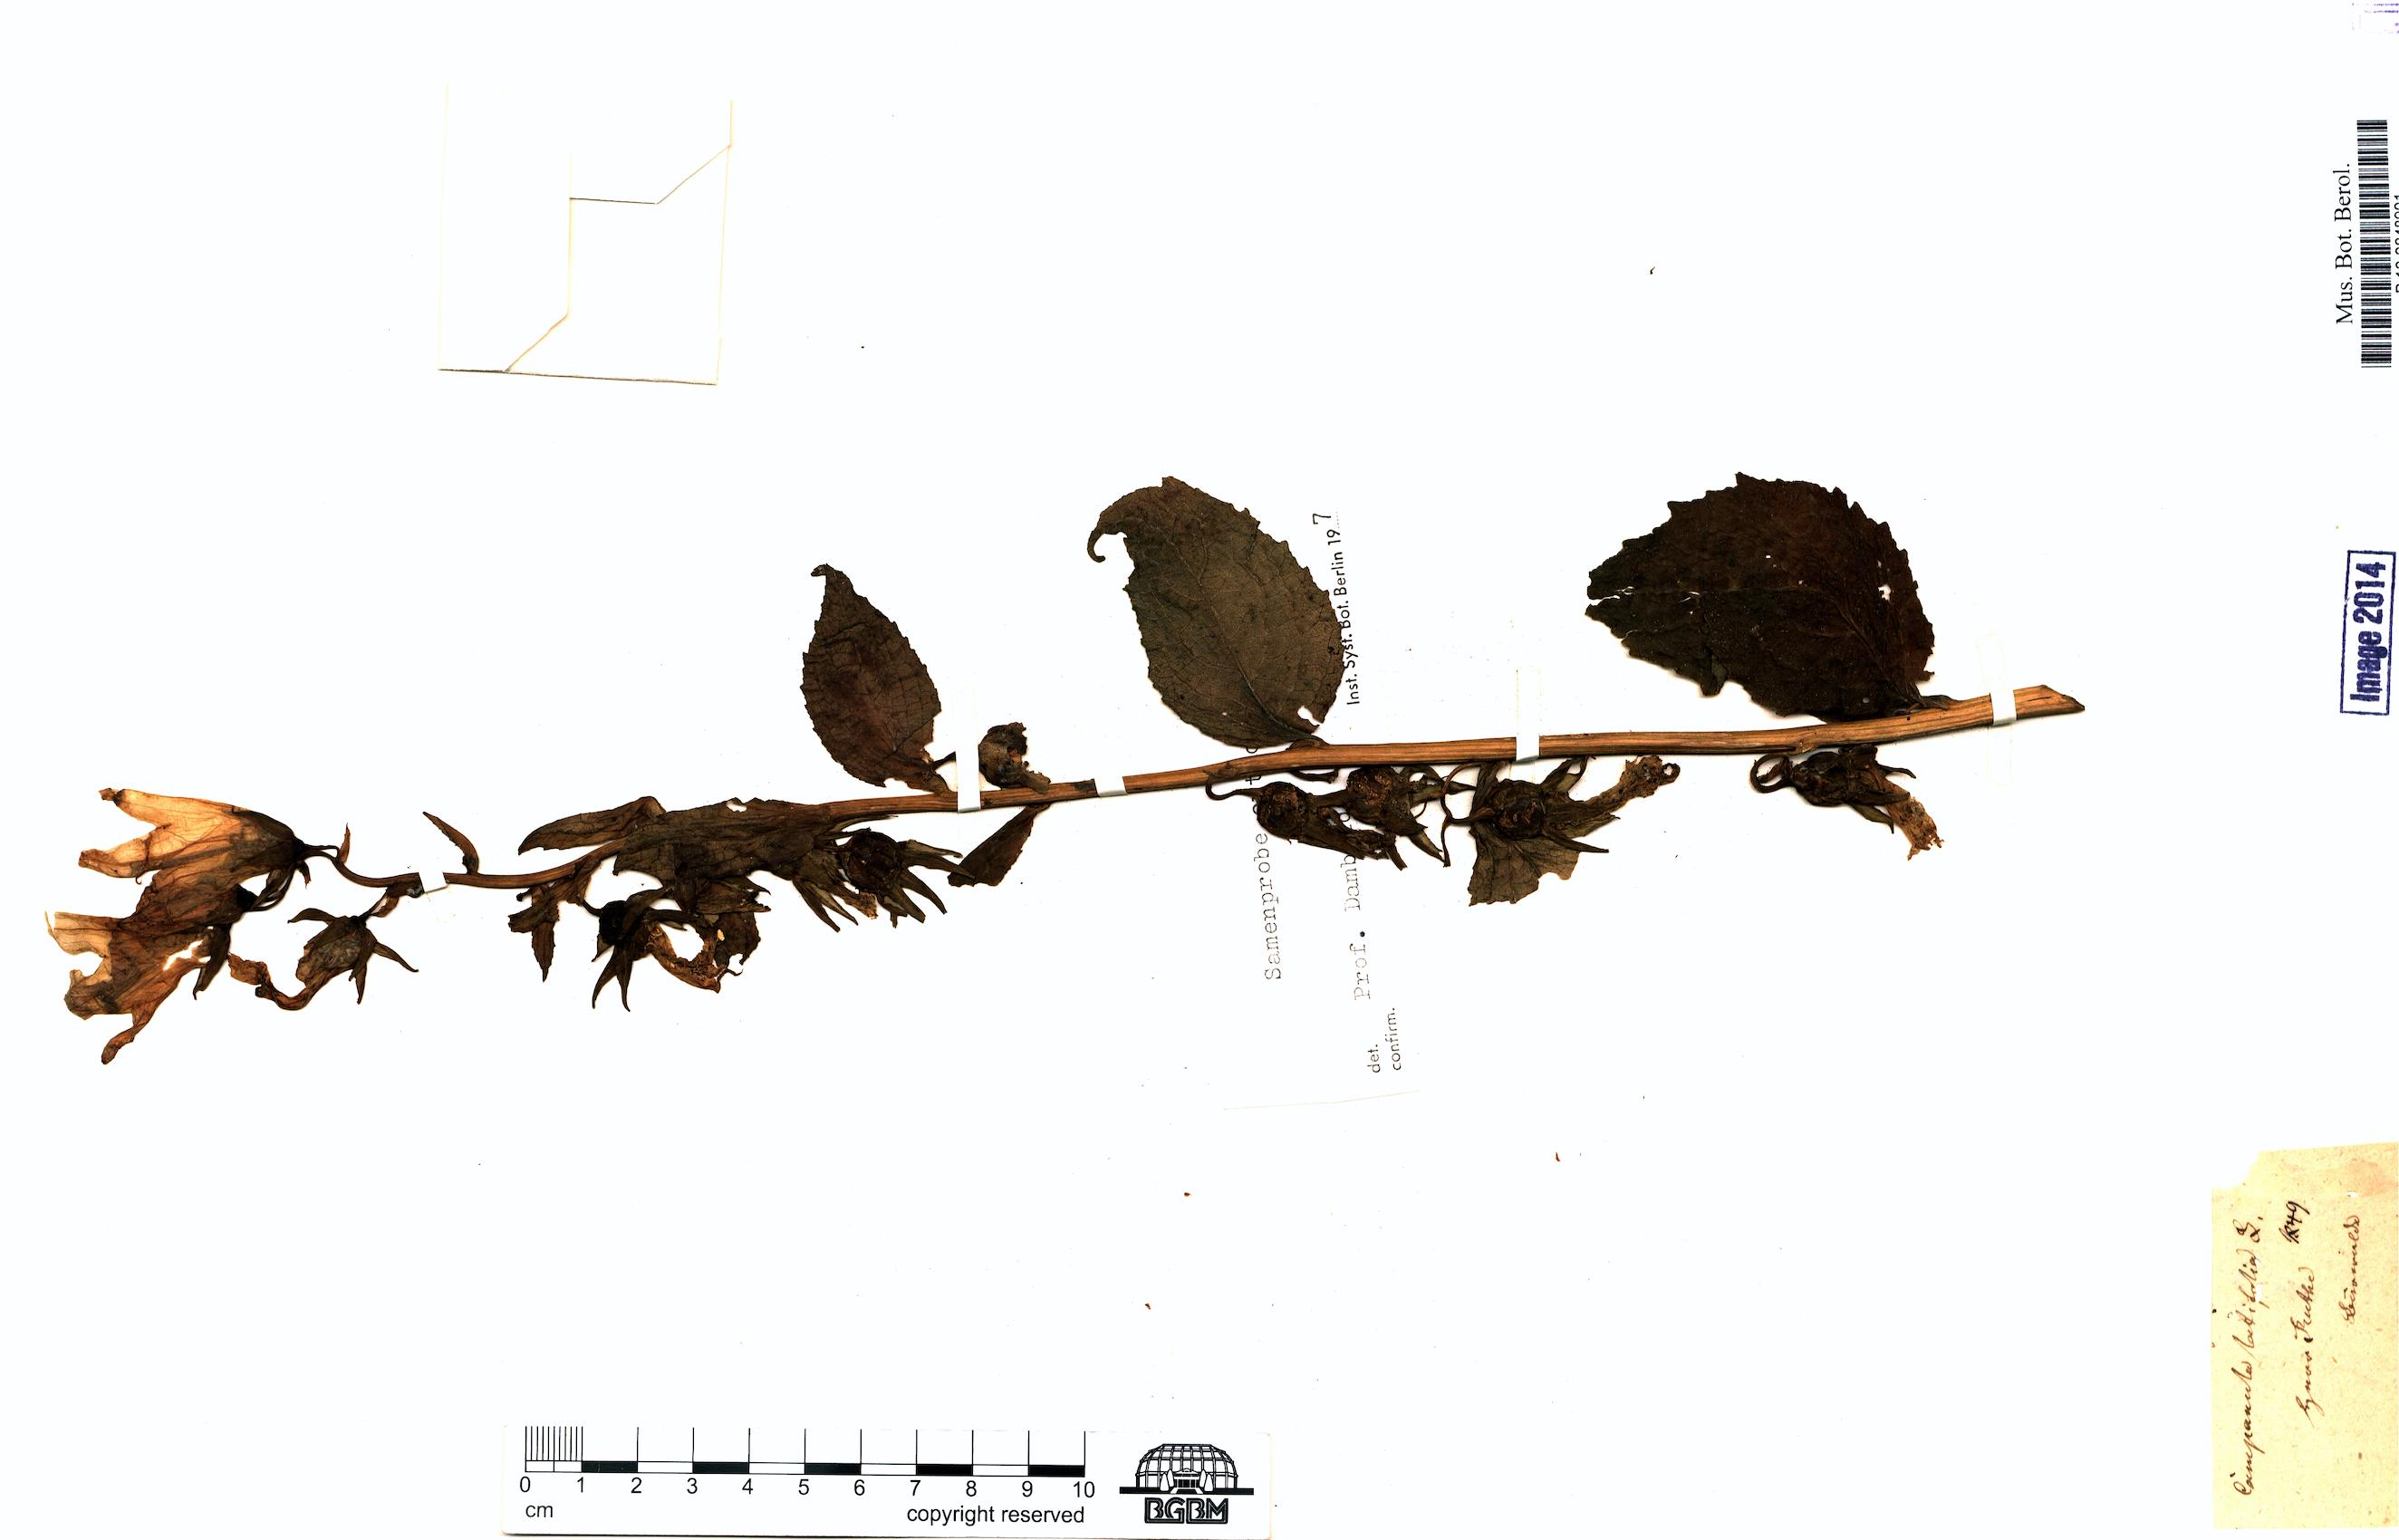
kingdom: Plantae
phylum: Tracheophyta
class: Magnoliopsida
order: Asterales
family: Campanulaceae
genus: Campanula
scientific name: Campanula latifolia
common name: Giant bellflower
